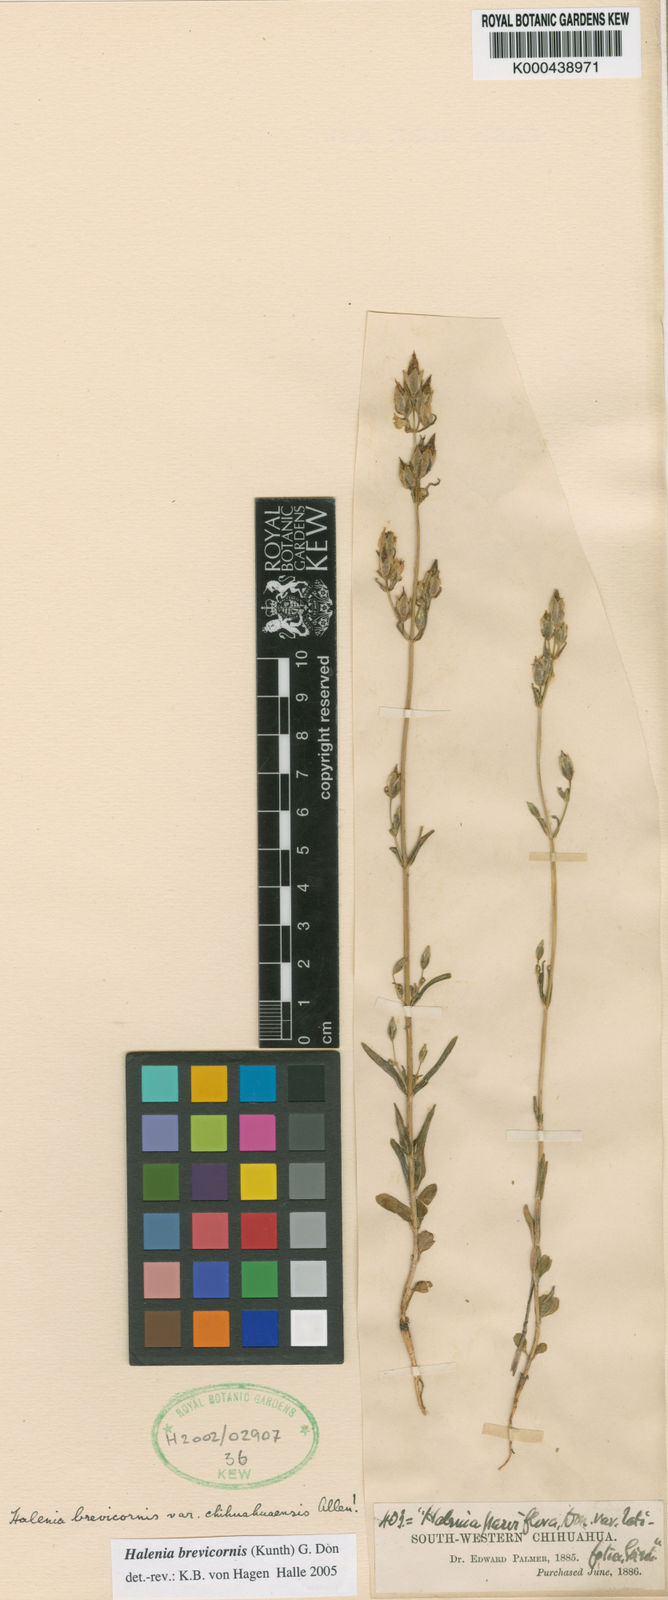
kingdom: Plantae
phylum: Tracheophyta
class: Magnoliopsida
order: Gentianales
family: Gentianaceae
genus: Halenia
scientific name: Halenia brevicornis
